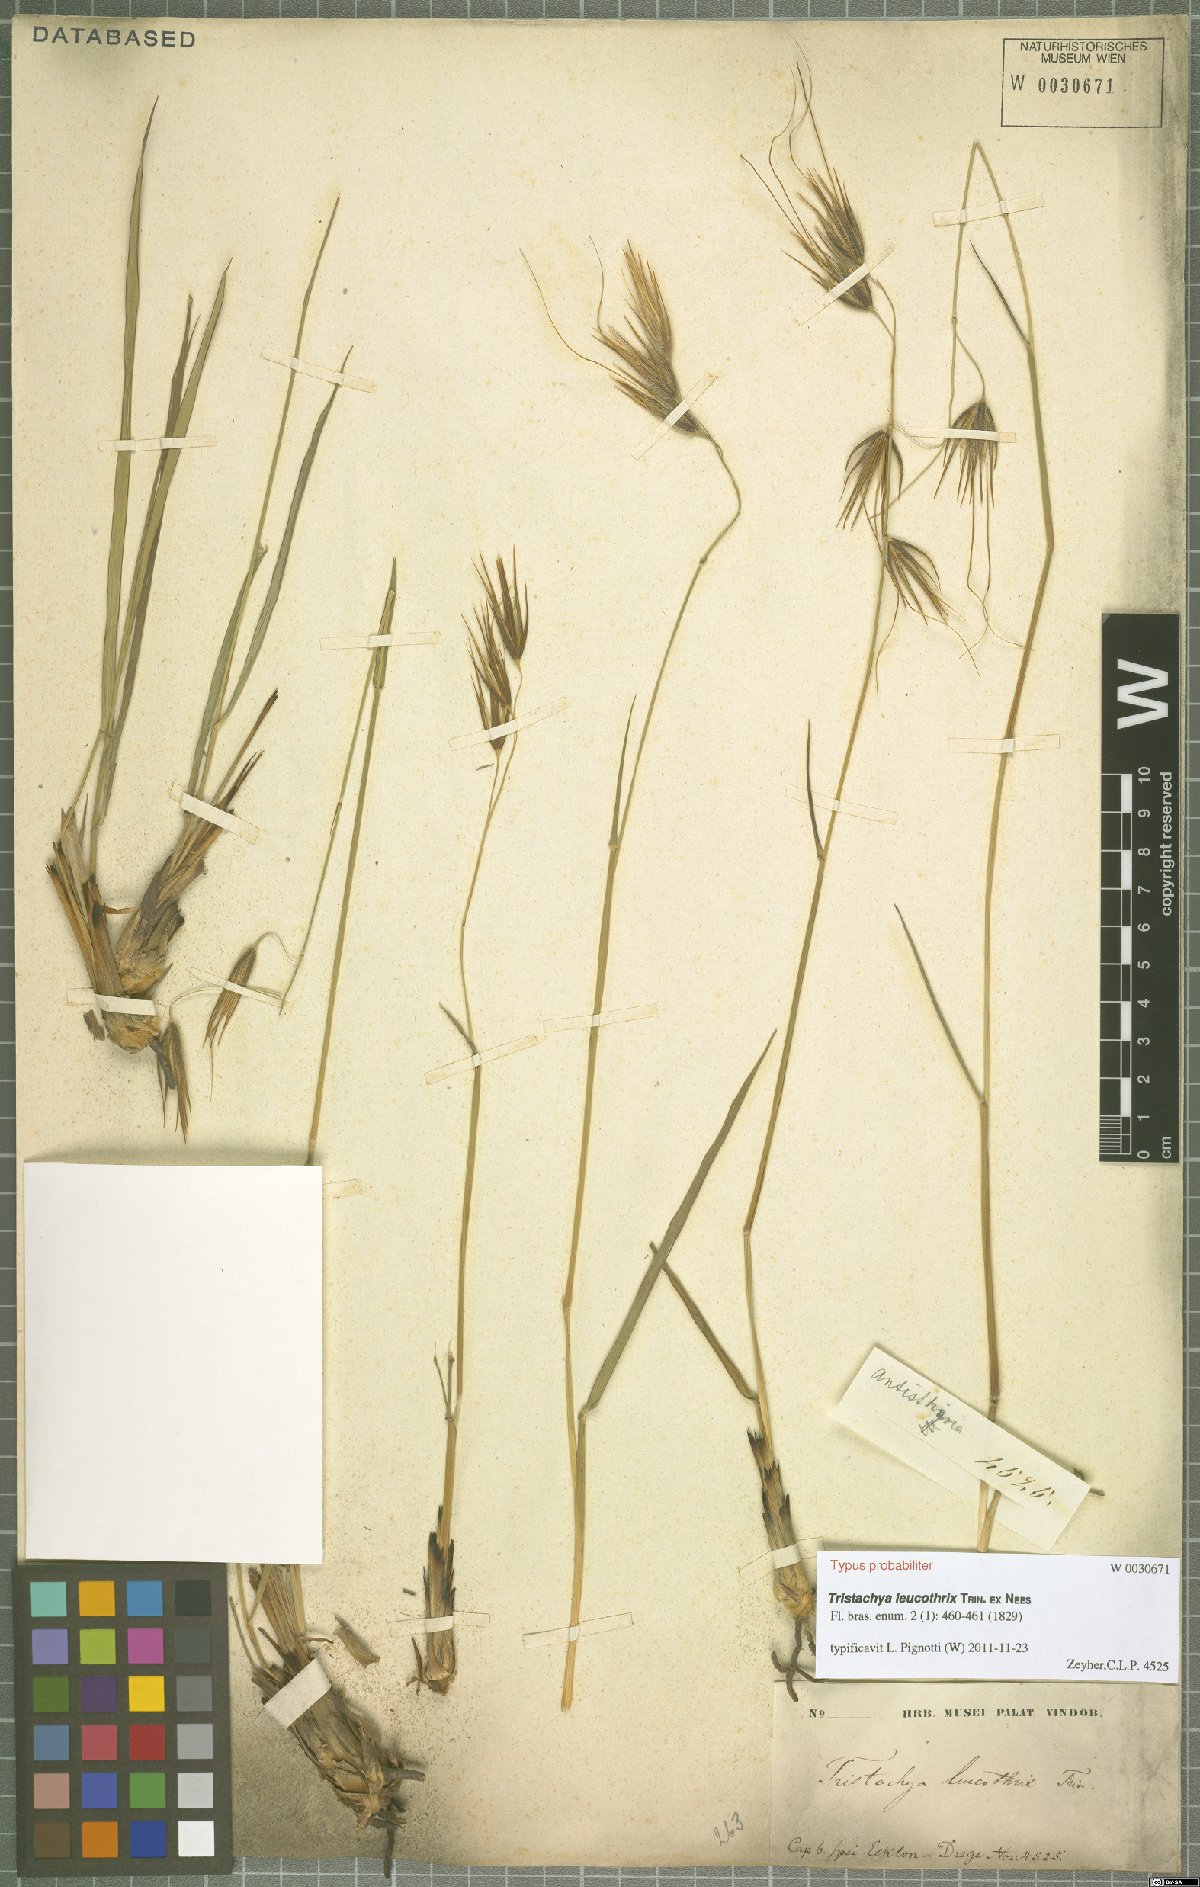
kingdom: Plantae
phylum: Tracheophyta
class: Liliopsida
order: Poales
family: Poaceae
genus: Tristachya
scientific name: Tristachya leucothrix
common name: Trident grass
